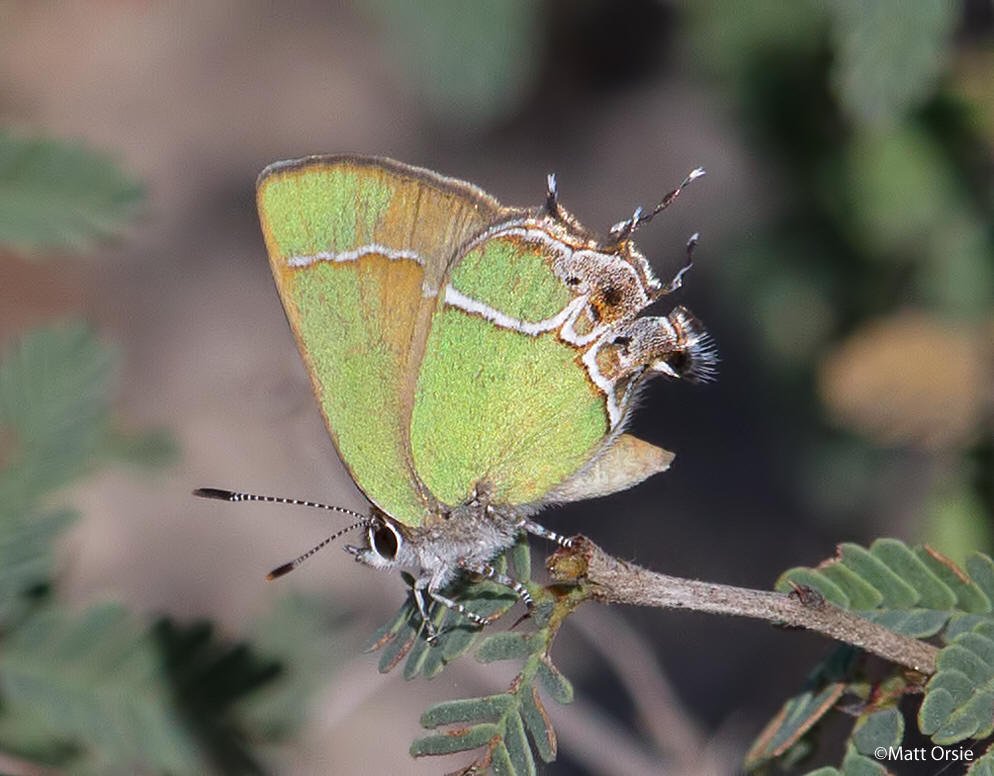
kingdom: Animalia
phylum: Arthropoda
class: Insecta
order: Lepidoptera
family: Lycaenidae
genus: Xamia
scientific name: Xamia xami
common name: Xami Hairstreak
